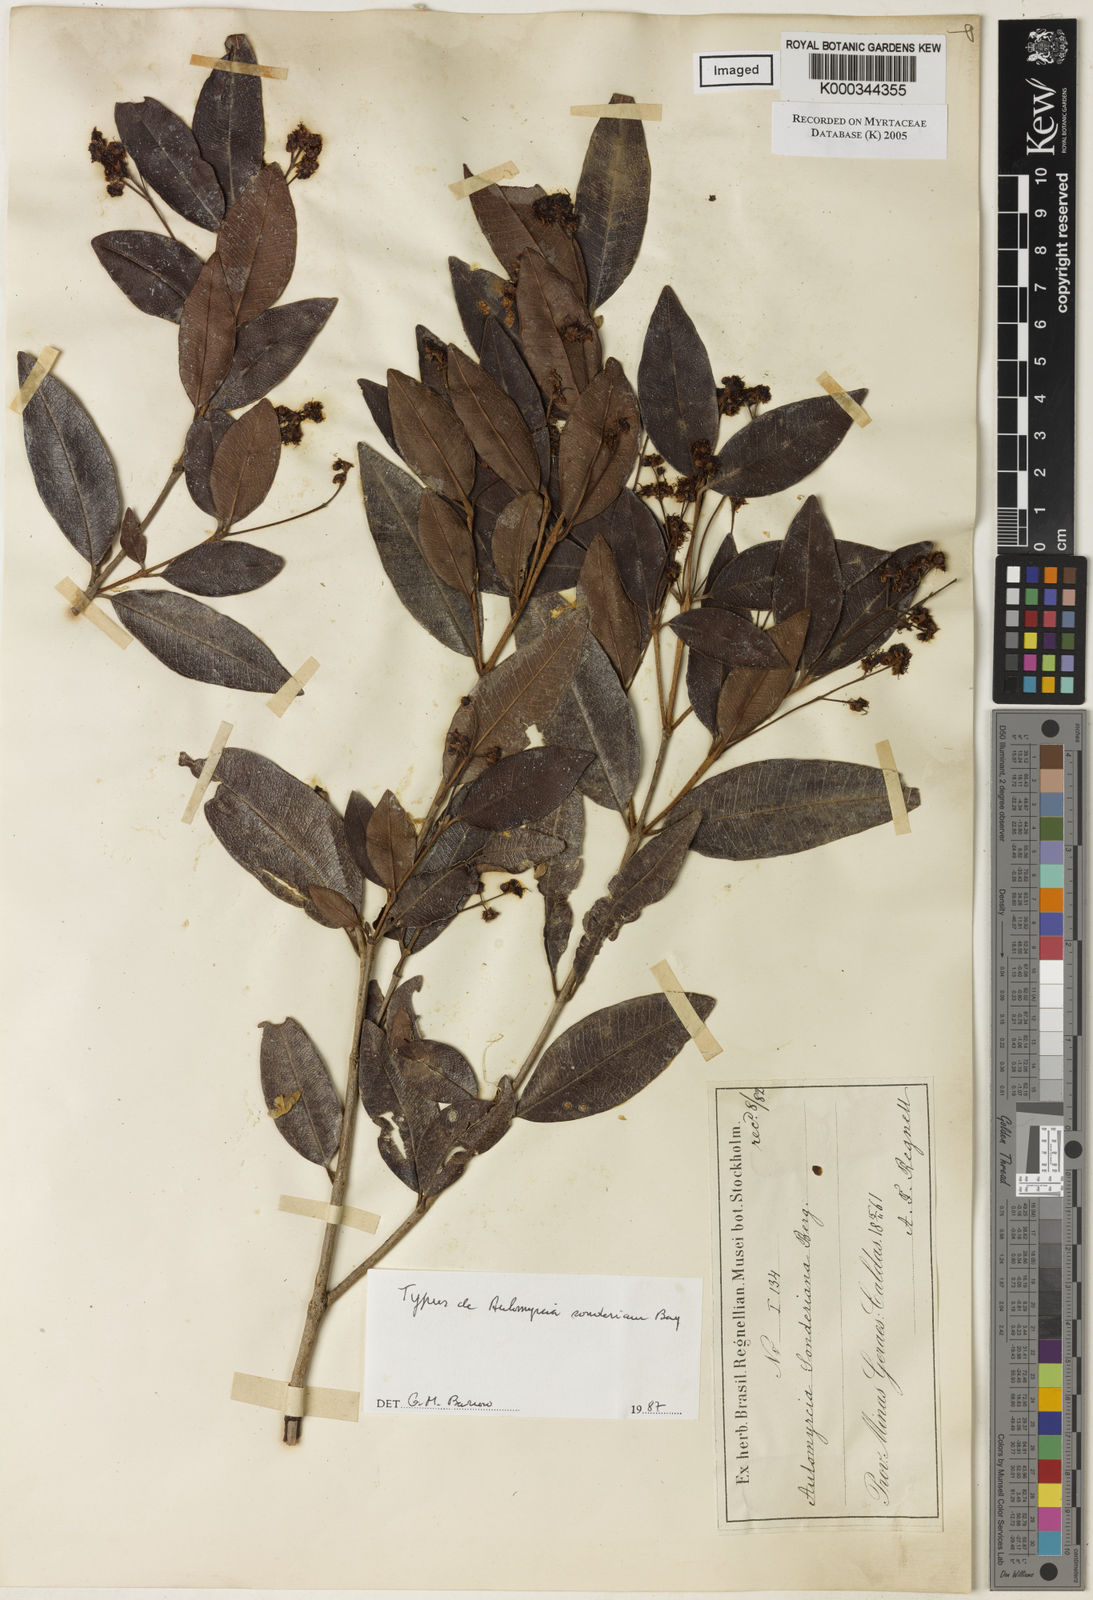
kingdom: Plantae
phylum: Tracheophyta
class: Magnoliopsida
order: Myrtales
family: Myrtaceae
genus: Myrcia
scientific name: Myrcia venulosa
